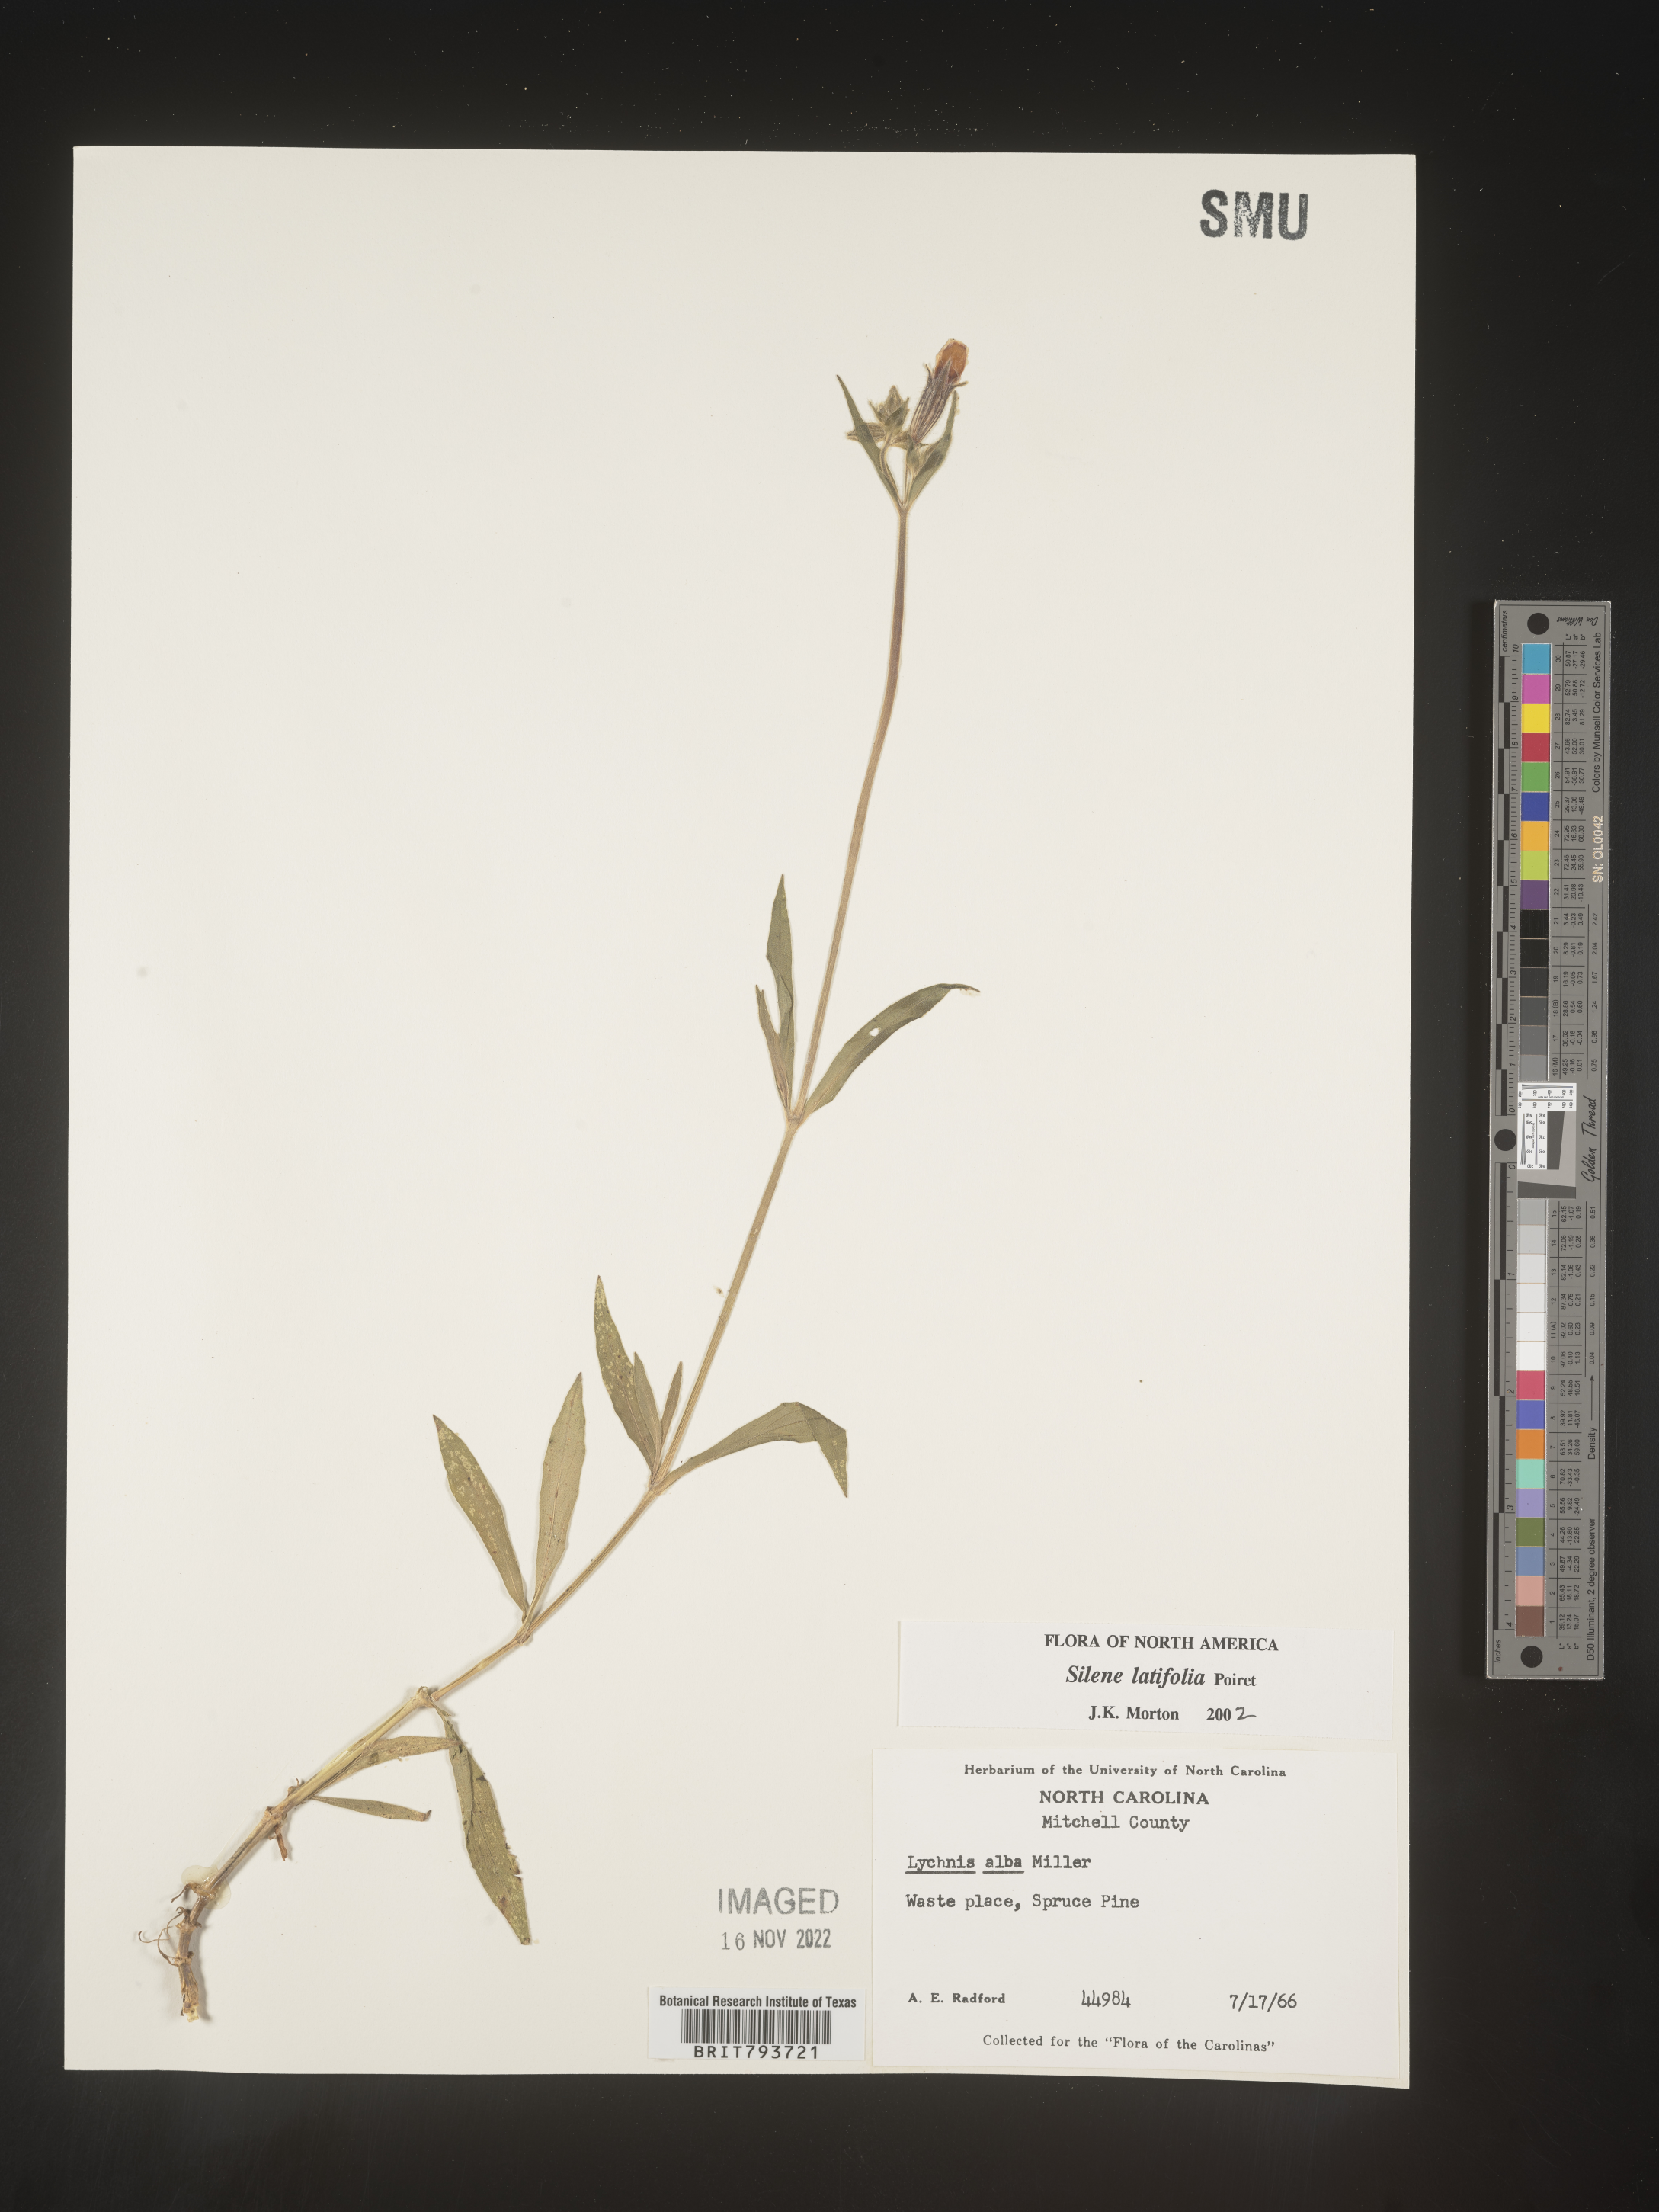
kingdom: Plantae
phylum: Tracheophyta
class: Magnoliopsida
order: Caryophyllales
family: Caryophyllaceae
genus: Silene
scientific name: Silene latifolia
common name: White campion
